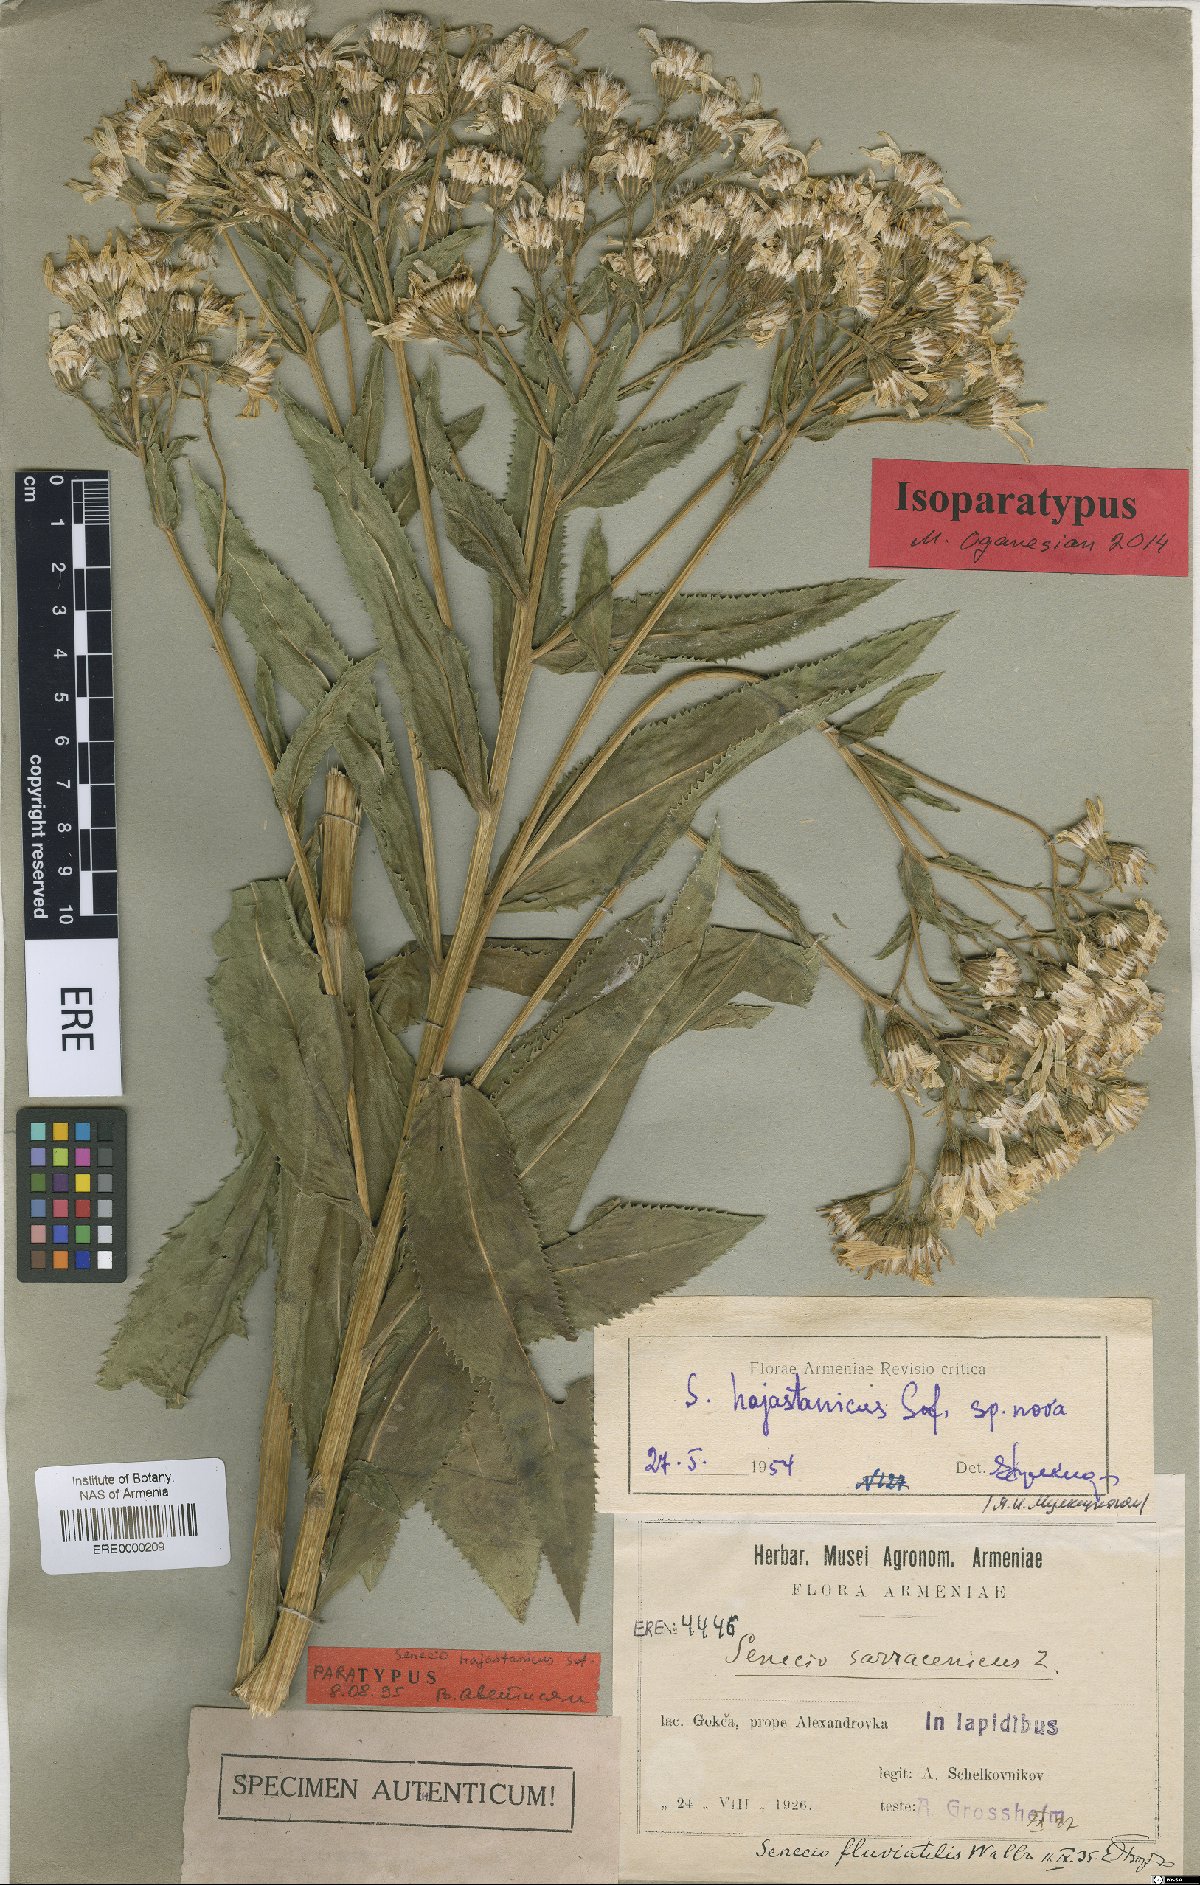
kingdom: Plantae
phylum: Tracheophyta
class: Magnoliopsida
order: Asterales
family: Asteraceae
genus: Senecio
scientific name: Senecio hajastanicus
